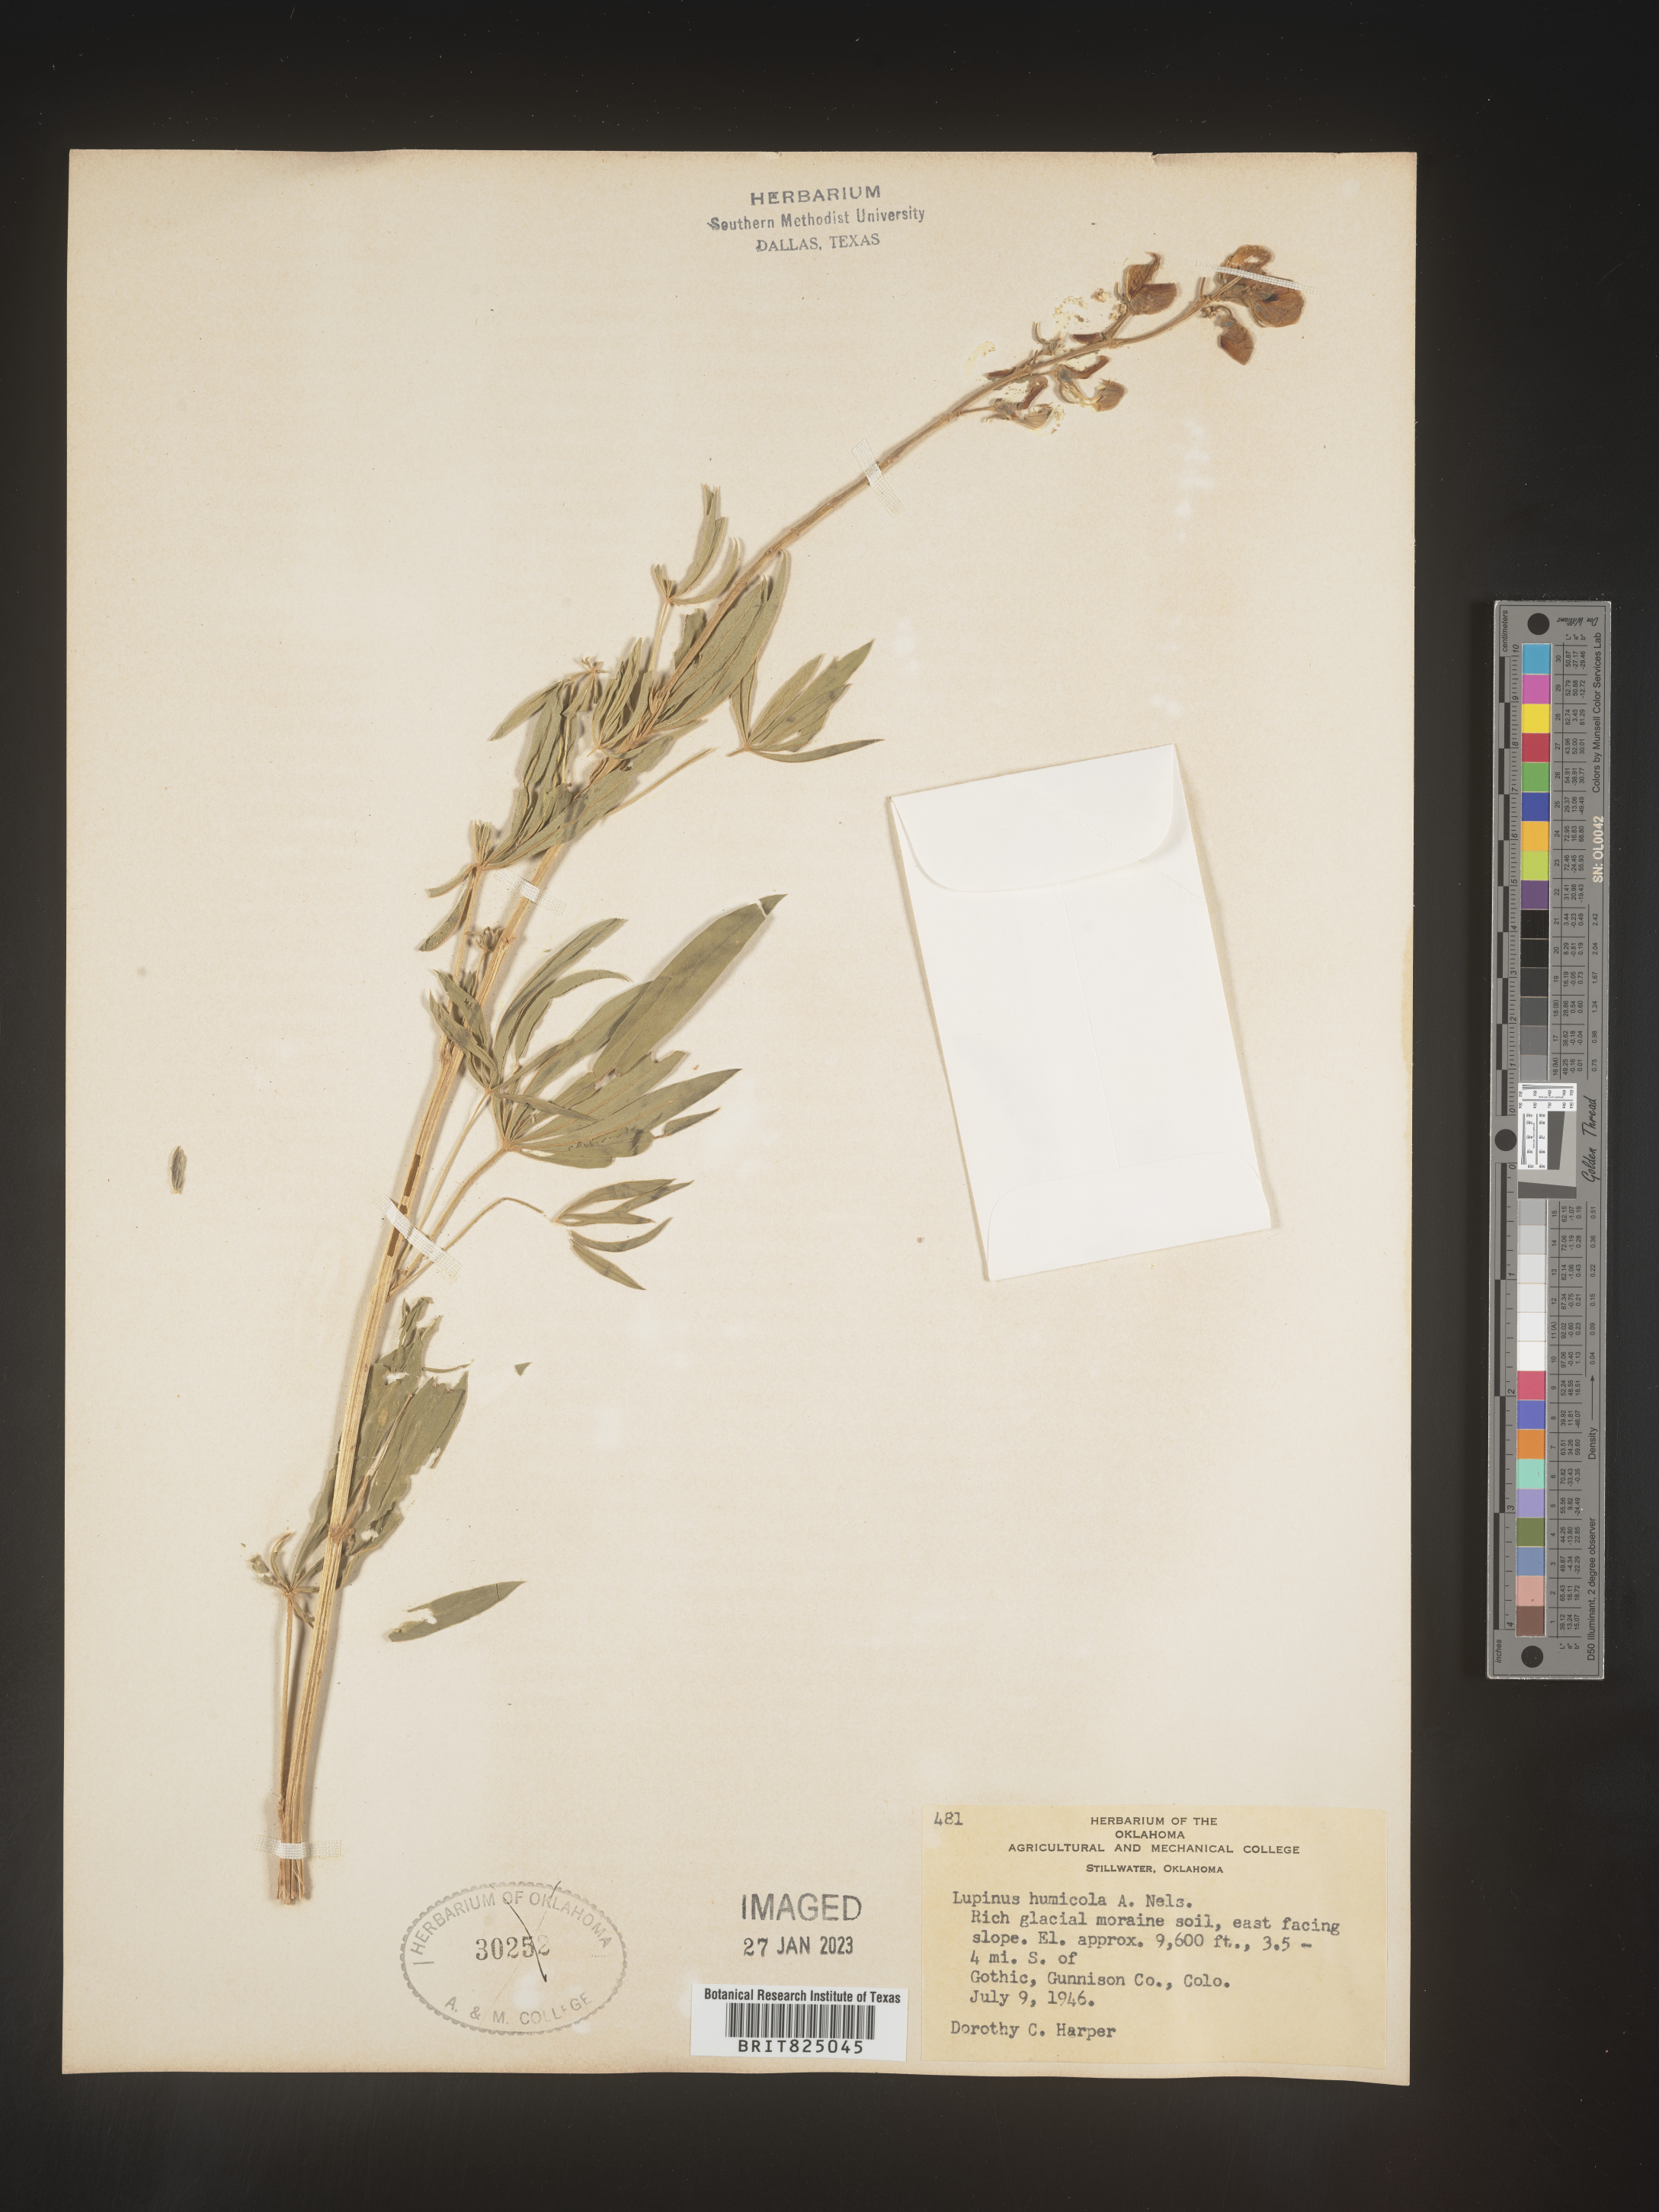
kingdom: Plantae
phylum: Tracheophyta
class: Magnoliopsida
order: Fabales
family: Fabaceae
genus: Lupinus
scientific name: Lupinus
